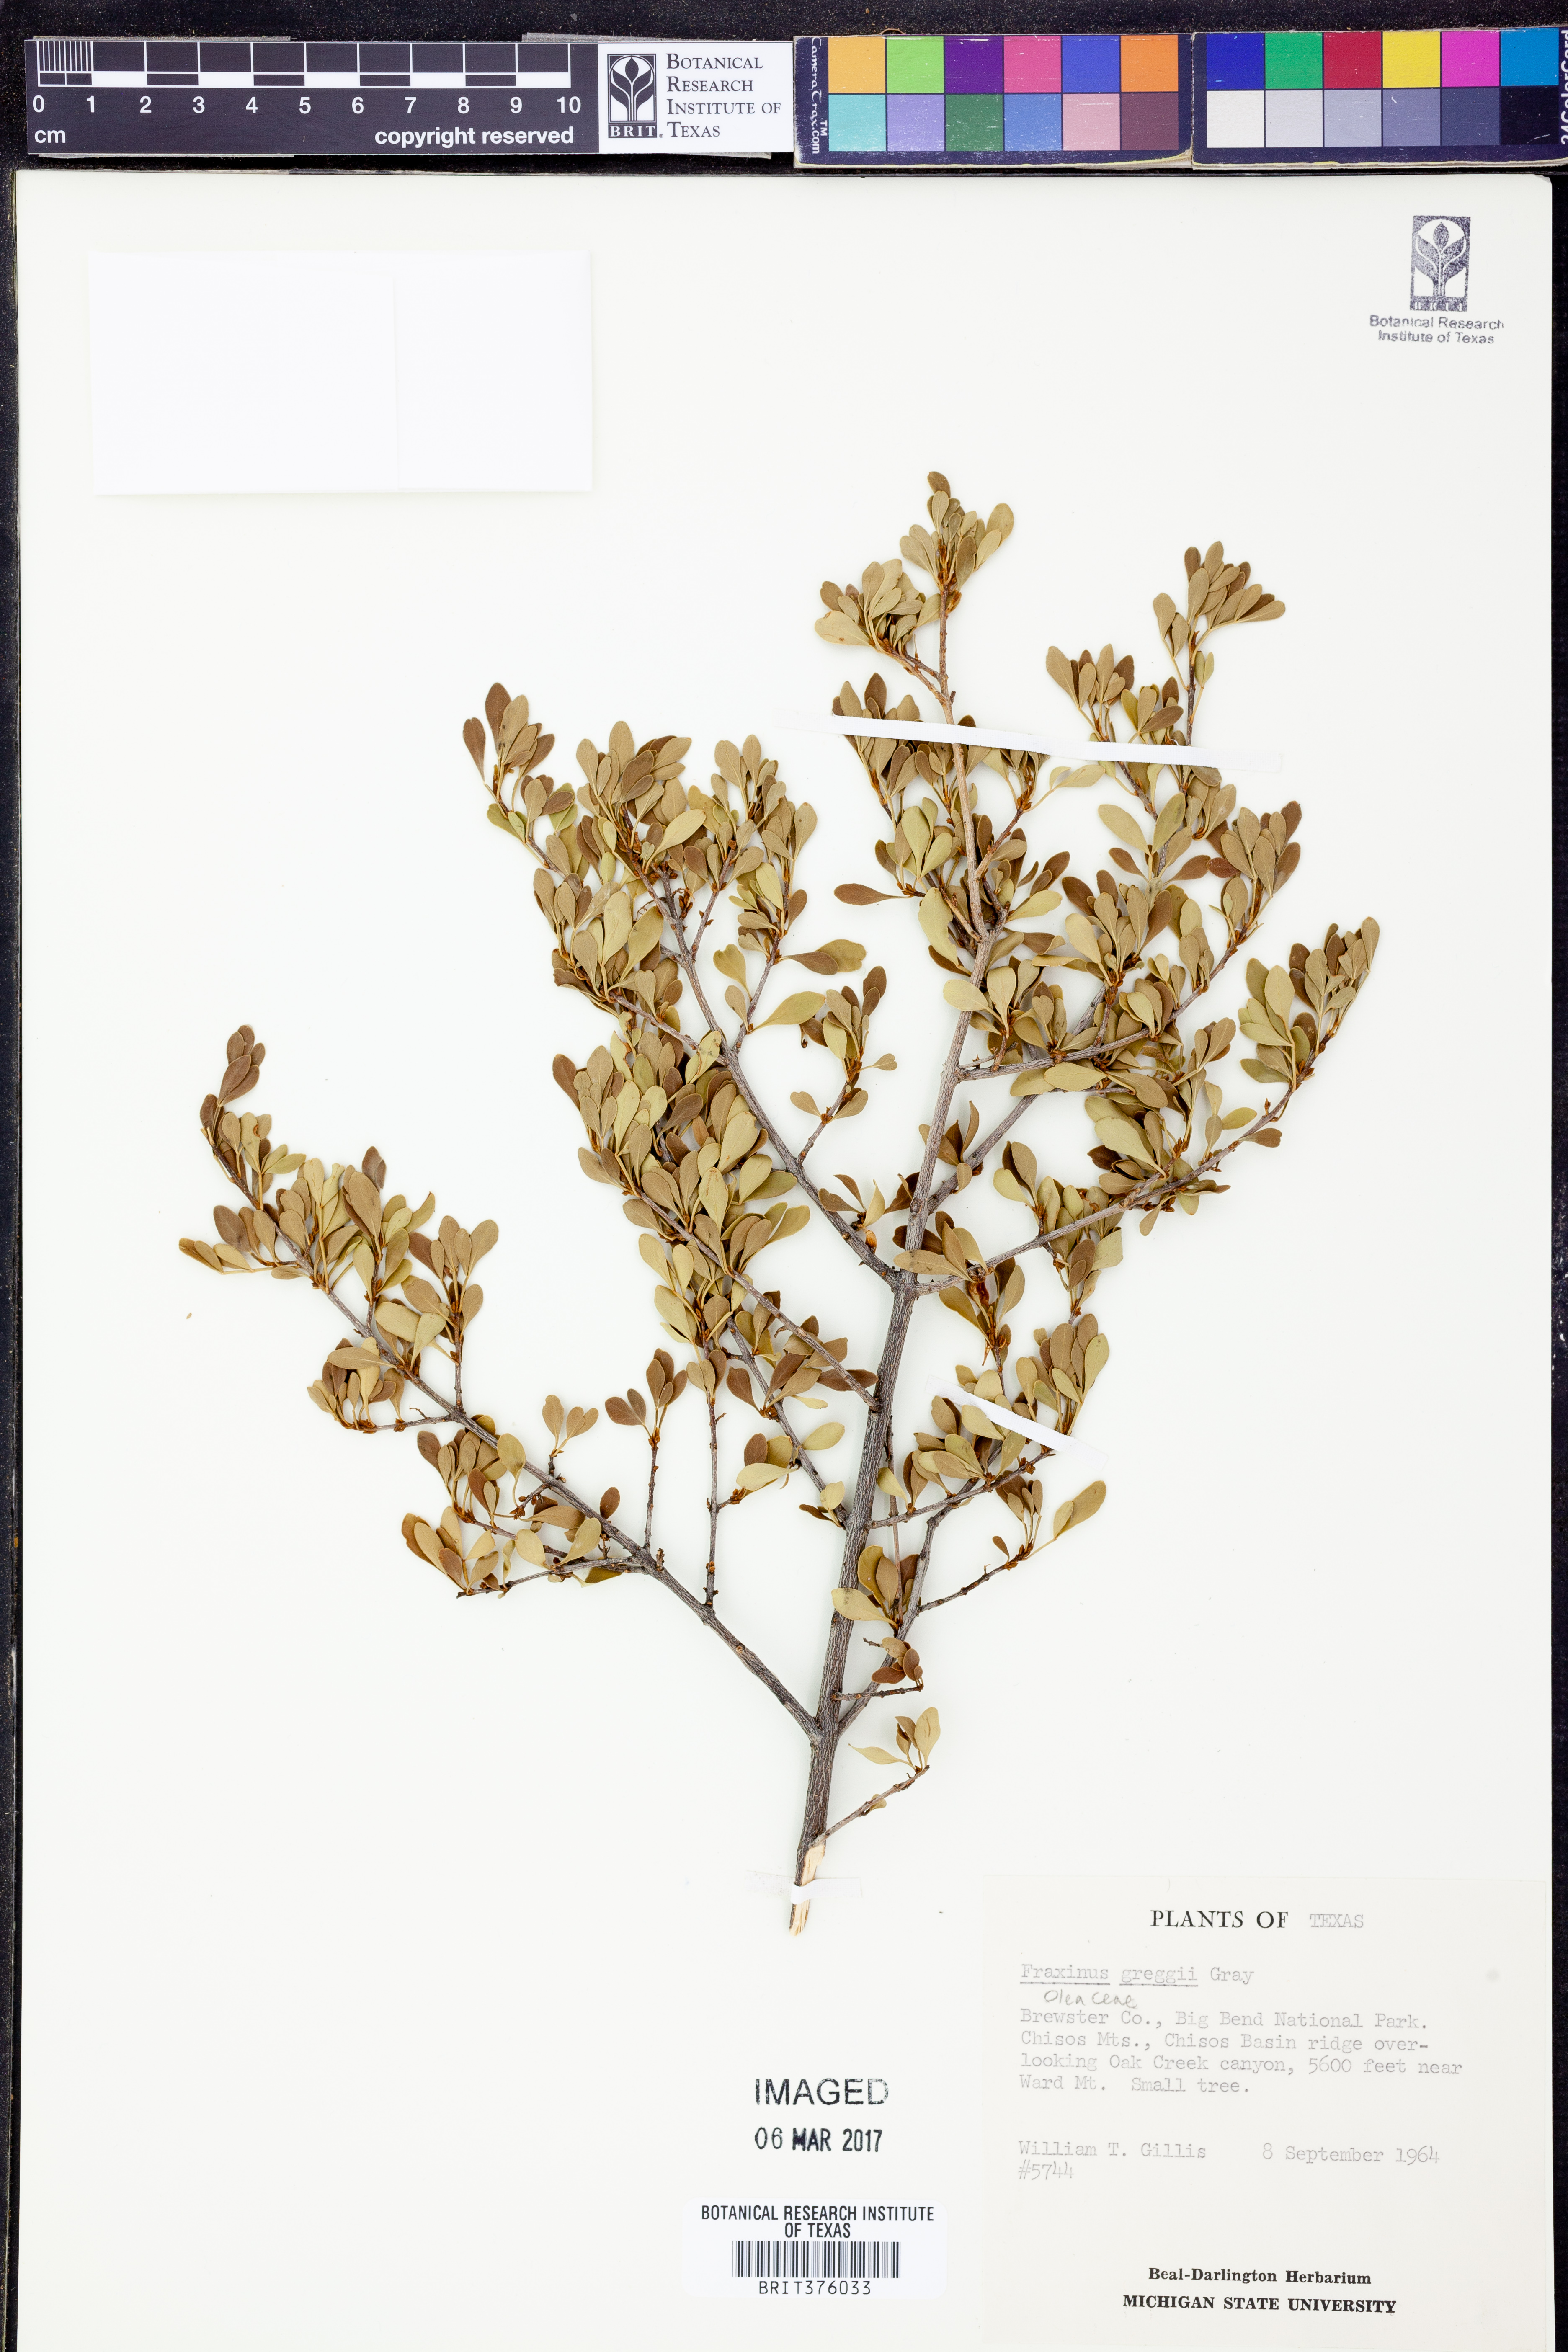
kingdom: Plantae
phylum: Tracheophyta
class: Magnoliopsida
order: Lamiales
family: Oleaceae
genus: Fraxinus
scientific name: Fraxinus greggii
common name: Gregg ash
